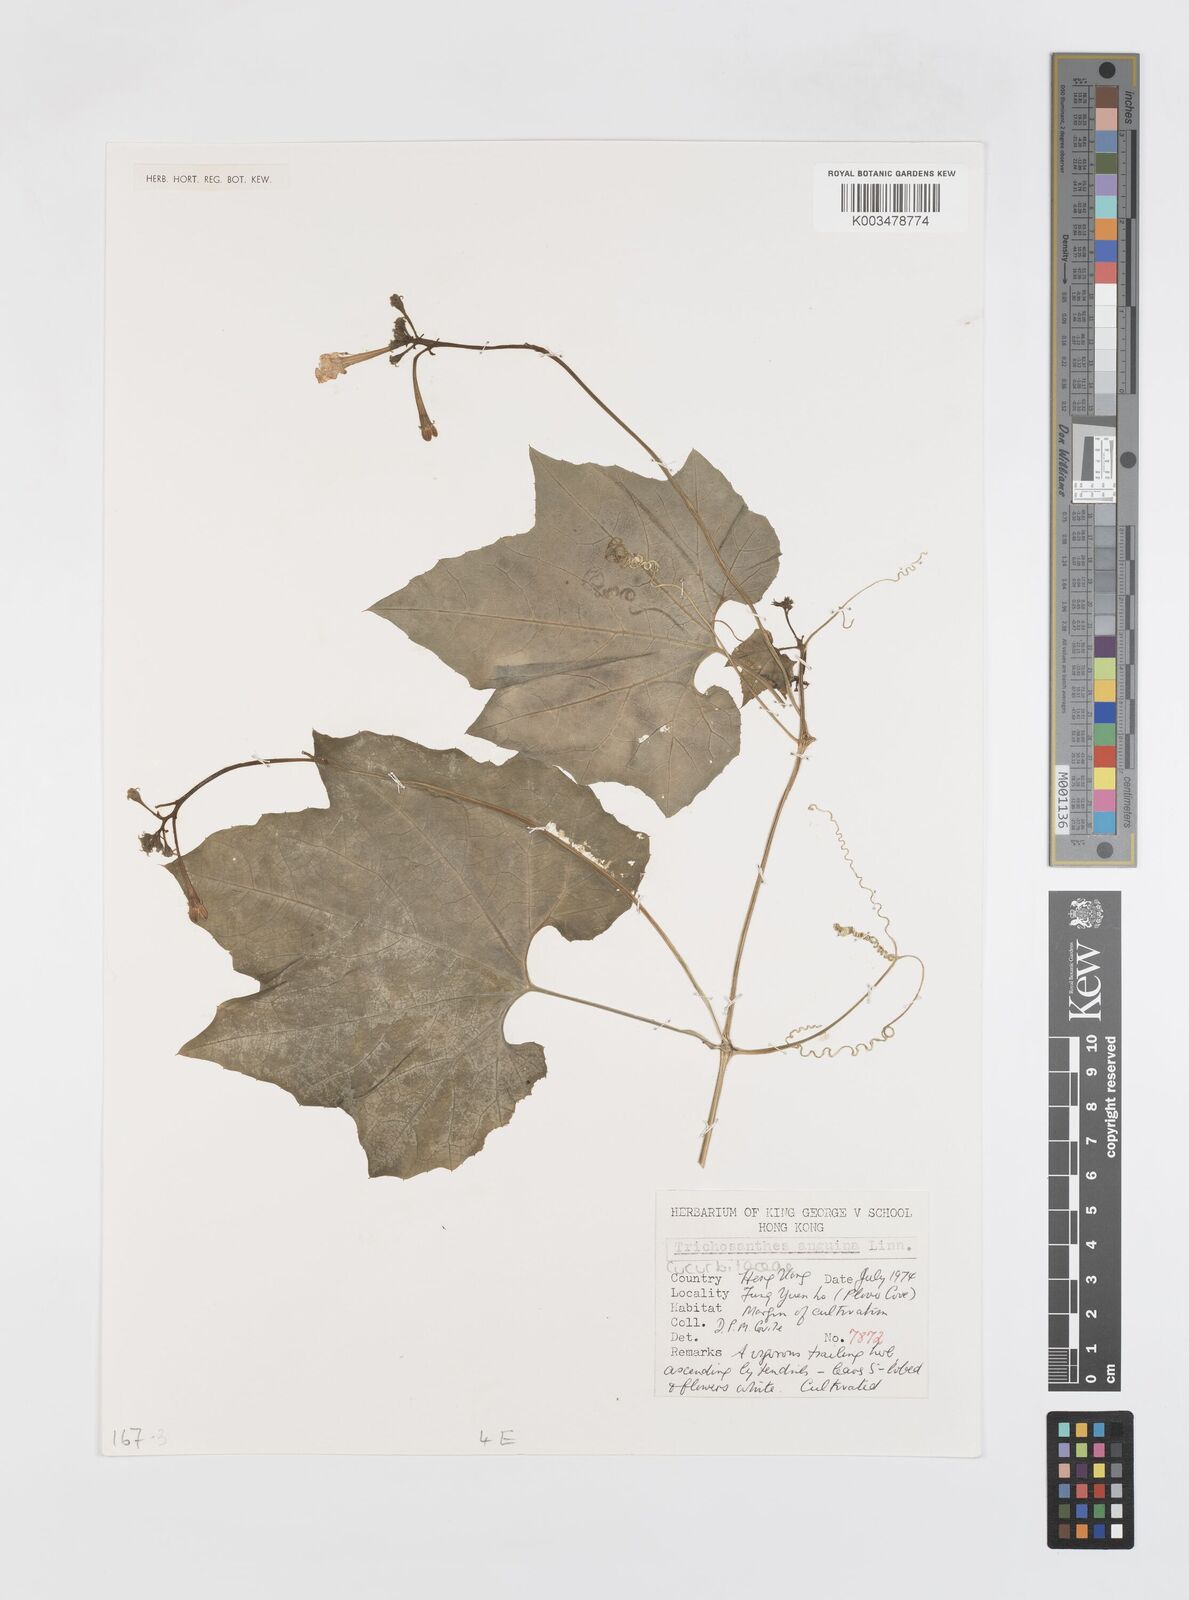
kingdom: Plantae
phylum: Tracheophyta
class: Magnoliopsida
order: Cucurbitales
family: Cucurbitaceae
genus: Trichosanthes
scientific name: Trichosanthes cucumeroides
